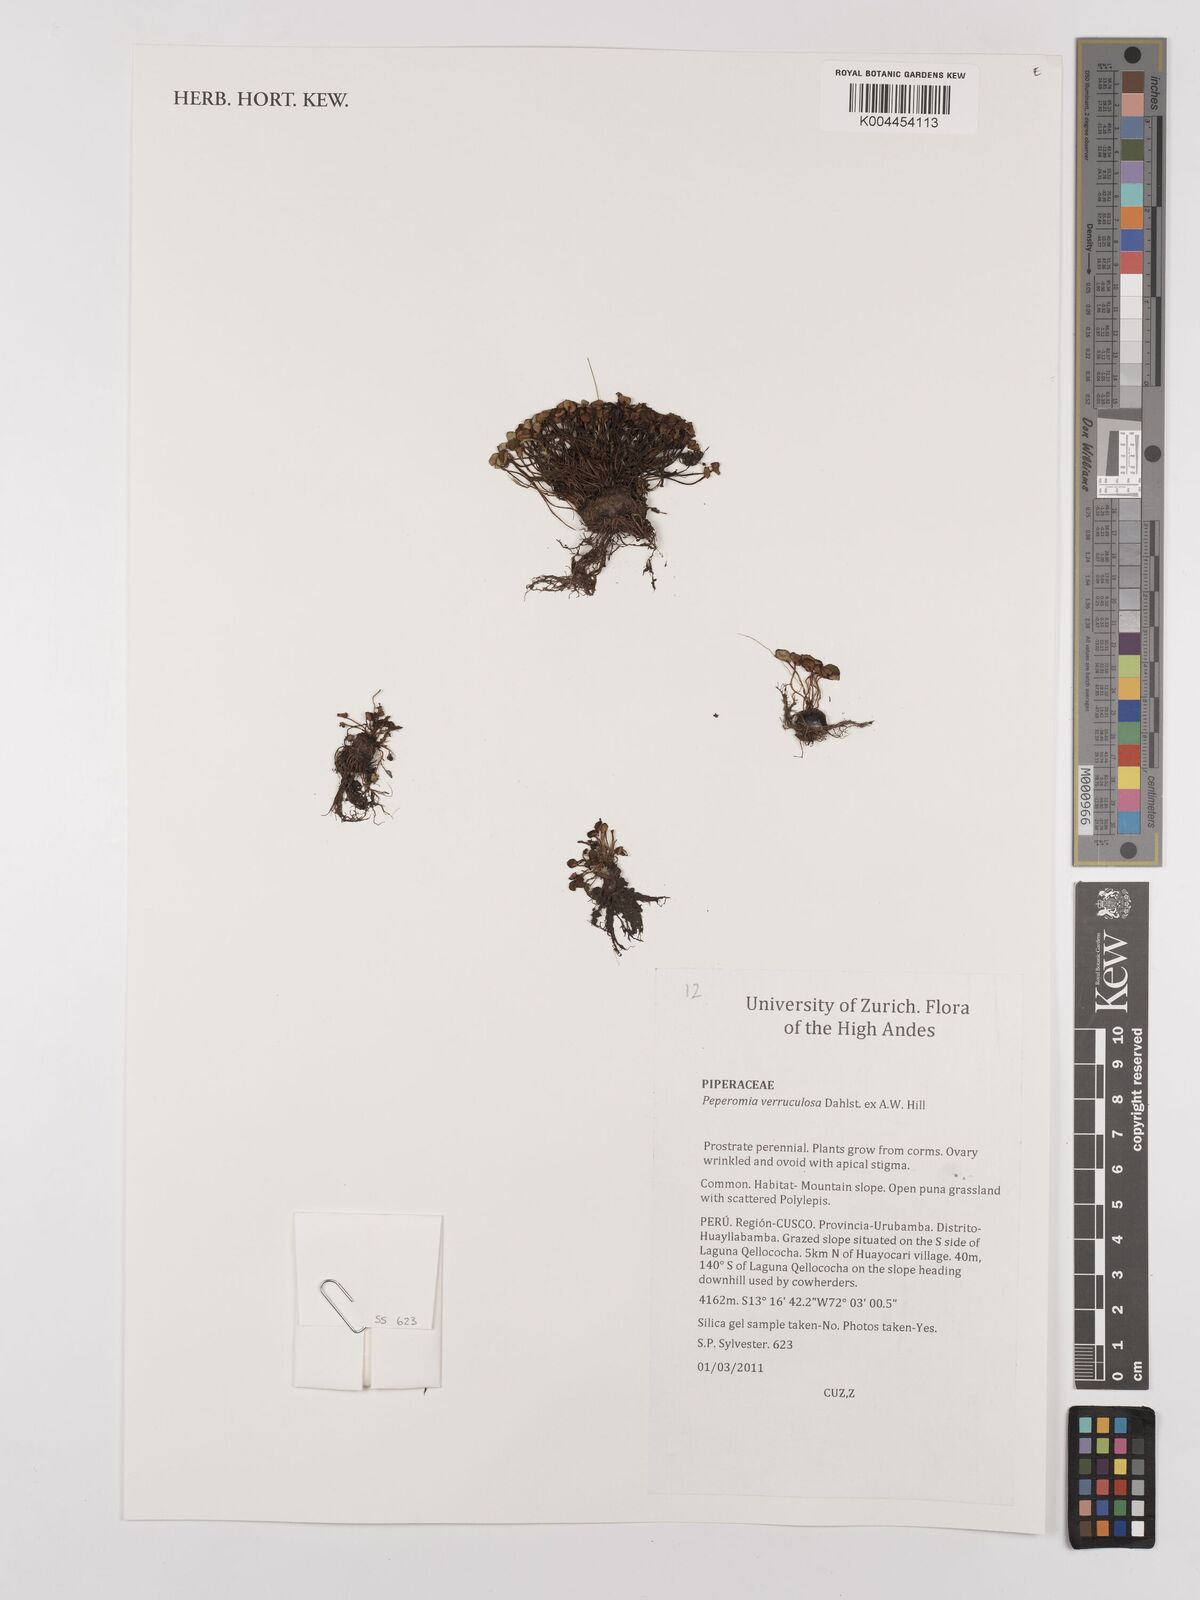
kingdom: Plantae
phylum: Tracheophyta
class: Magnoliopsida
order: Piperales
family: Piperaceae
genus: Peperomia
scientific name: Peperomia verruculosa
